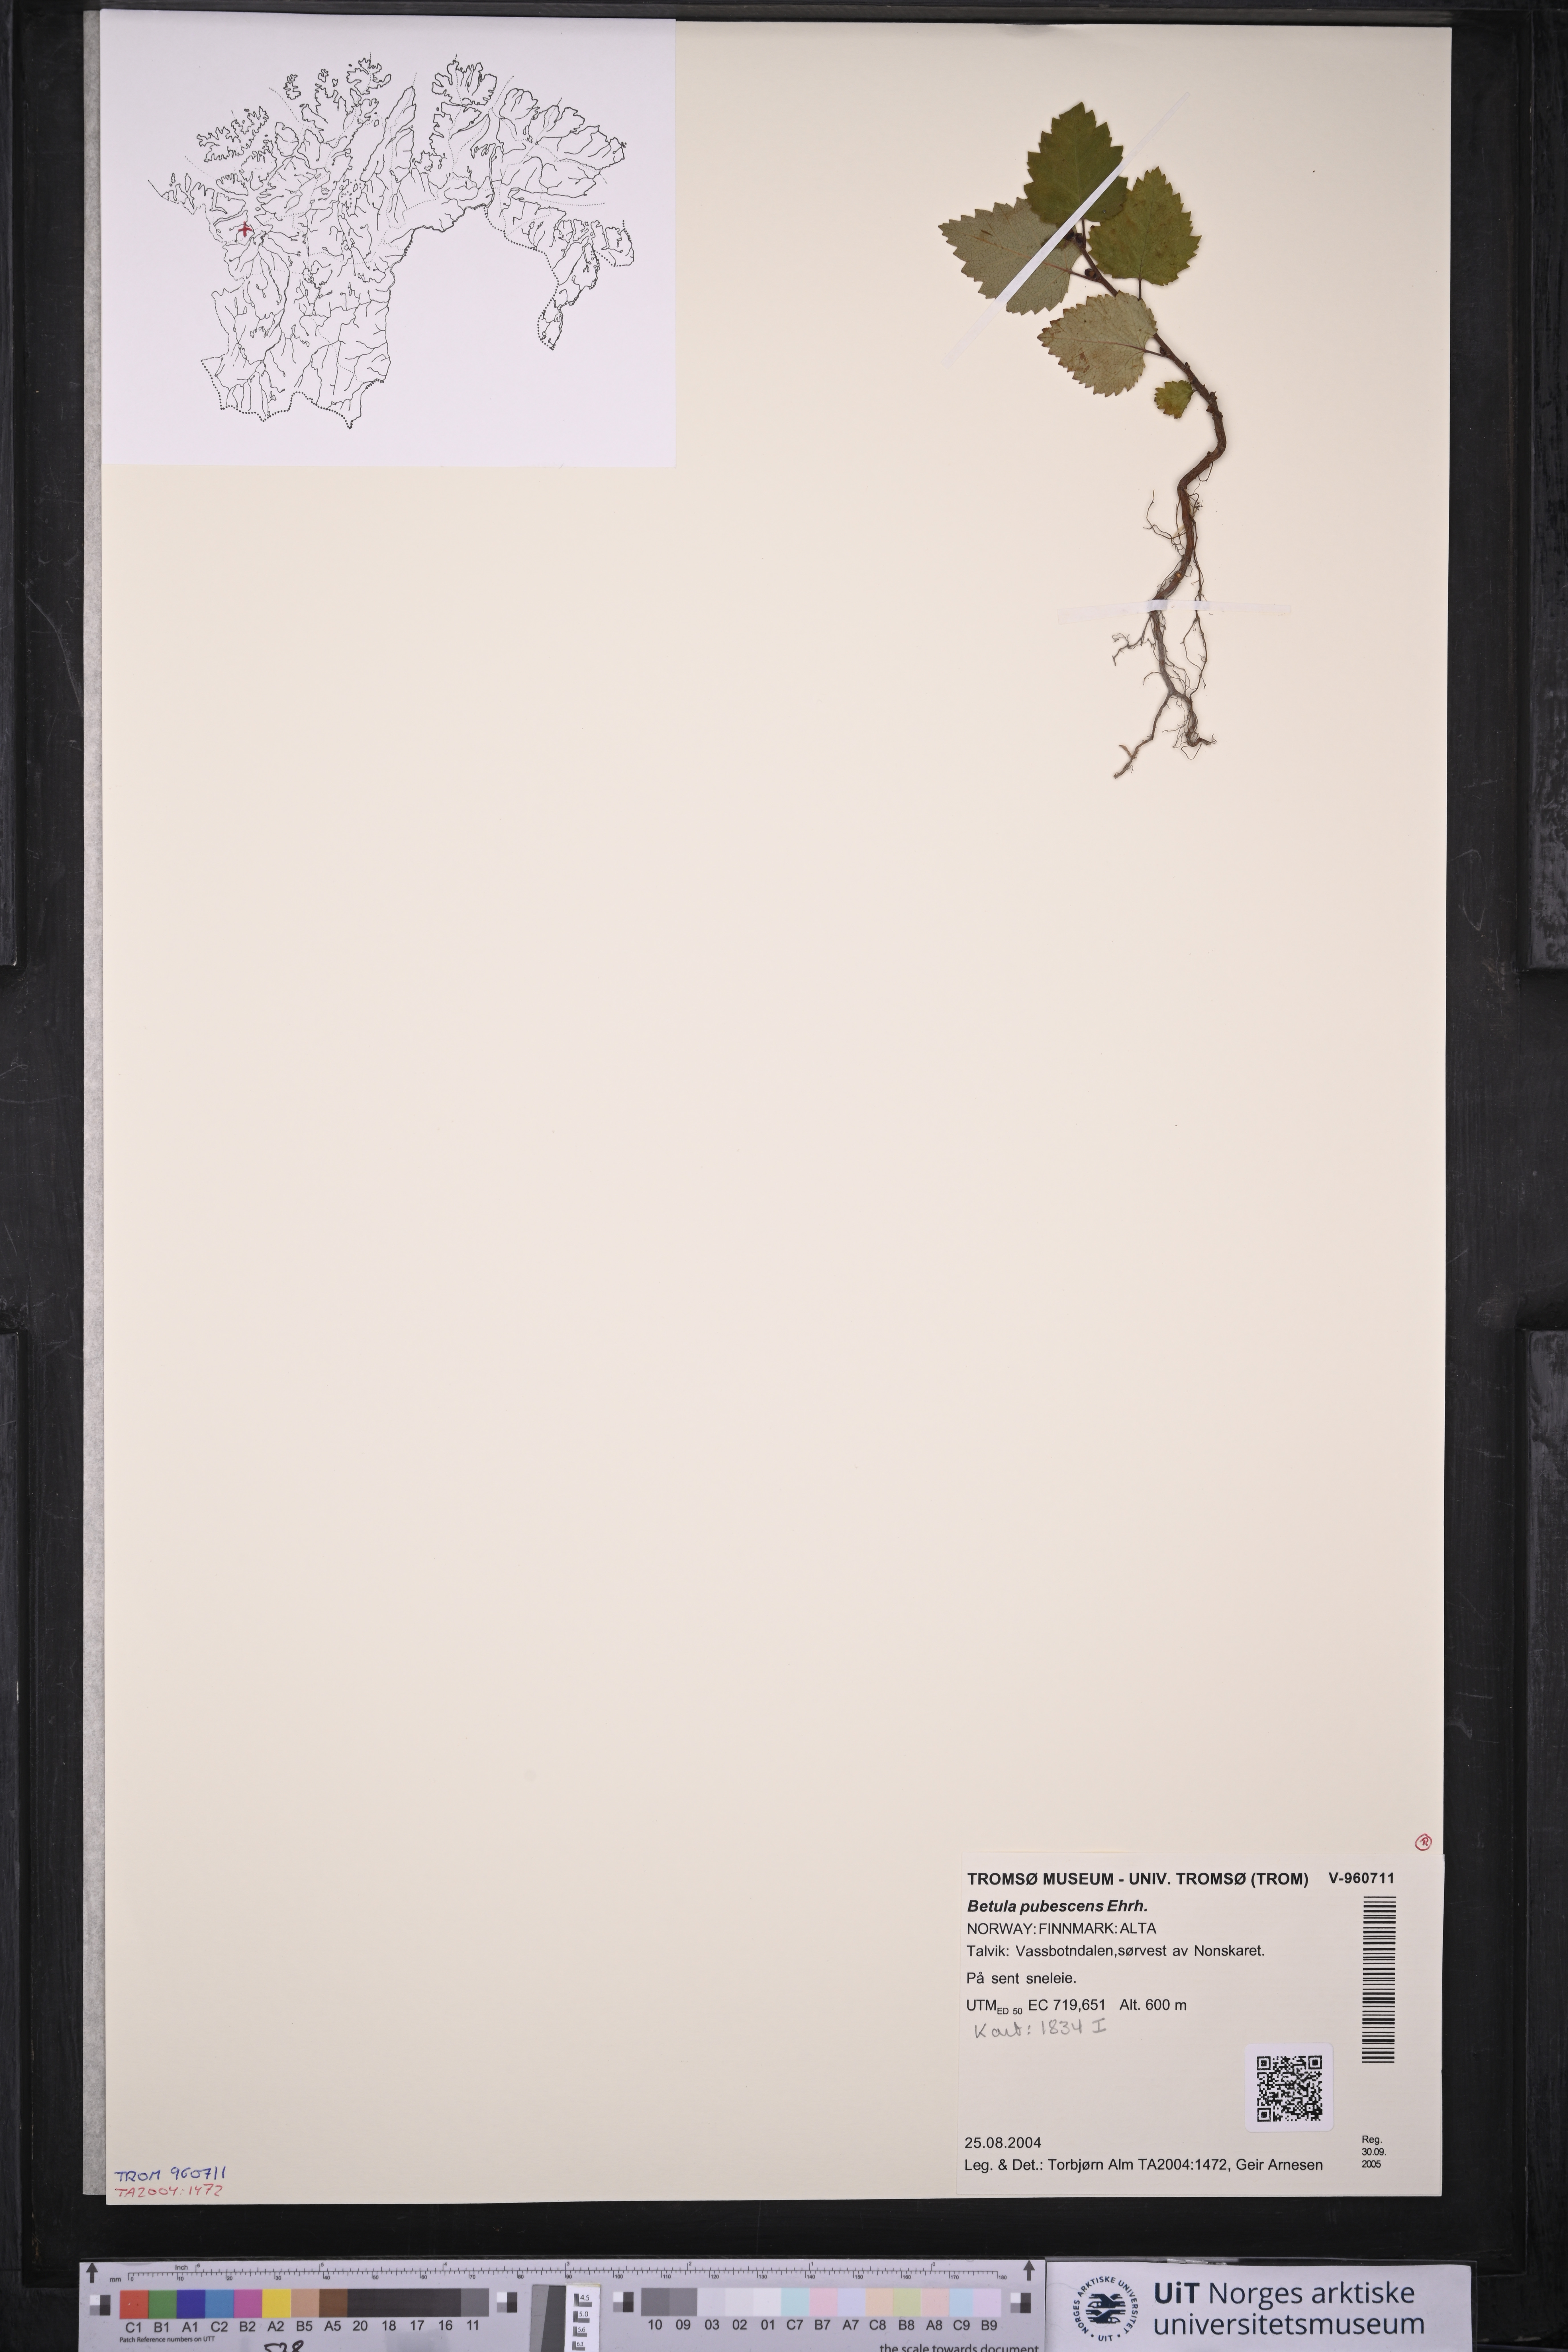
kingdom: Plantae
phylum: Tracheophyta
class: Magnoliopsida
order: Fagales
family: Betulaceae
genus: Betula
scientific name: Betula pubescens
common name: Downy birch
